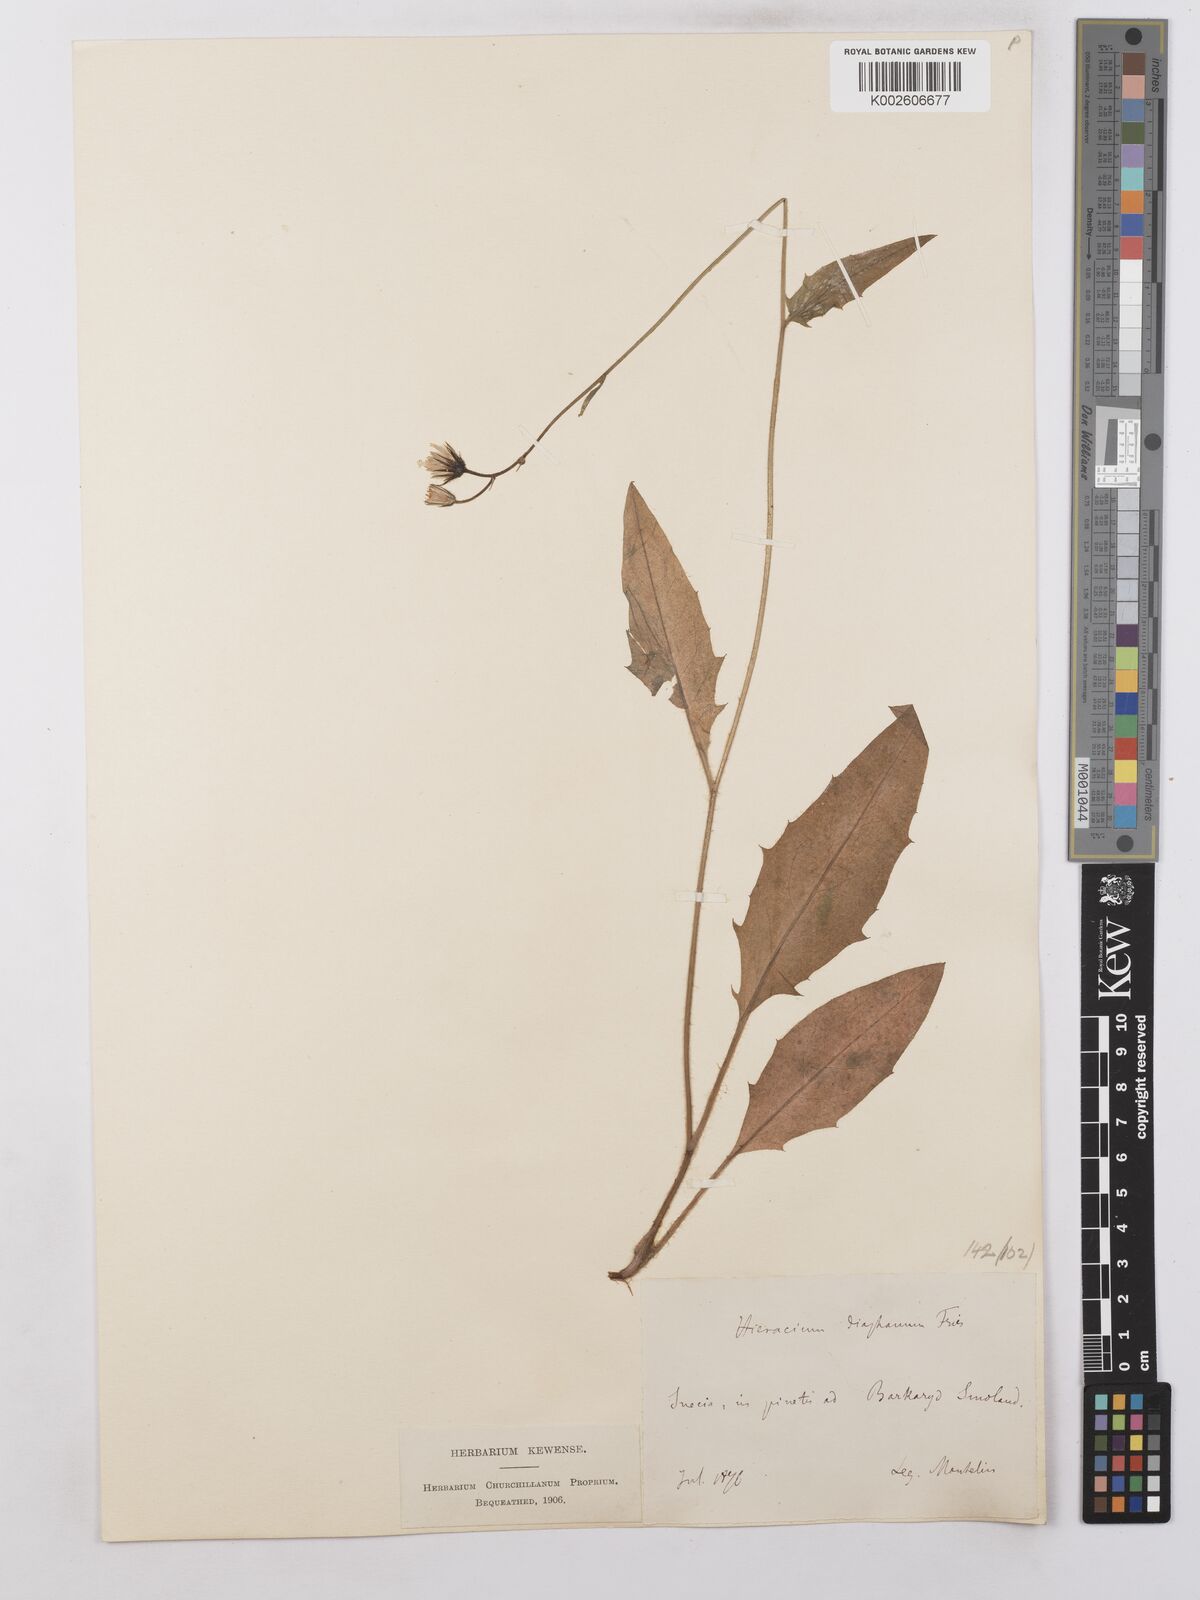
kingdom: Plantae
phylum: Tracheophyta
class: Magnoliopsida
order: Asterales
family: Asteraceae
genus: Hieracium
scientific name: Hieracium lachenalii
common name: Common hawkweed
